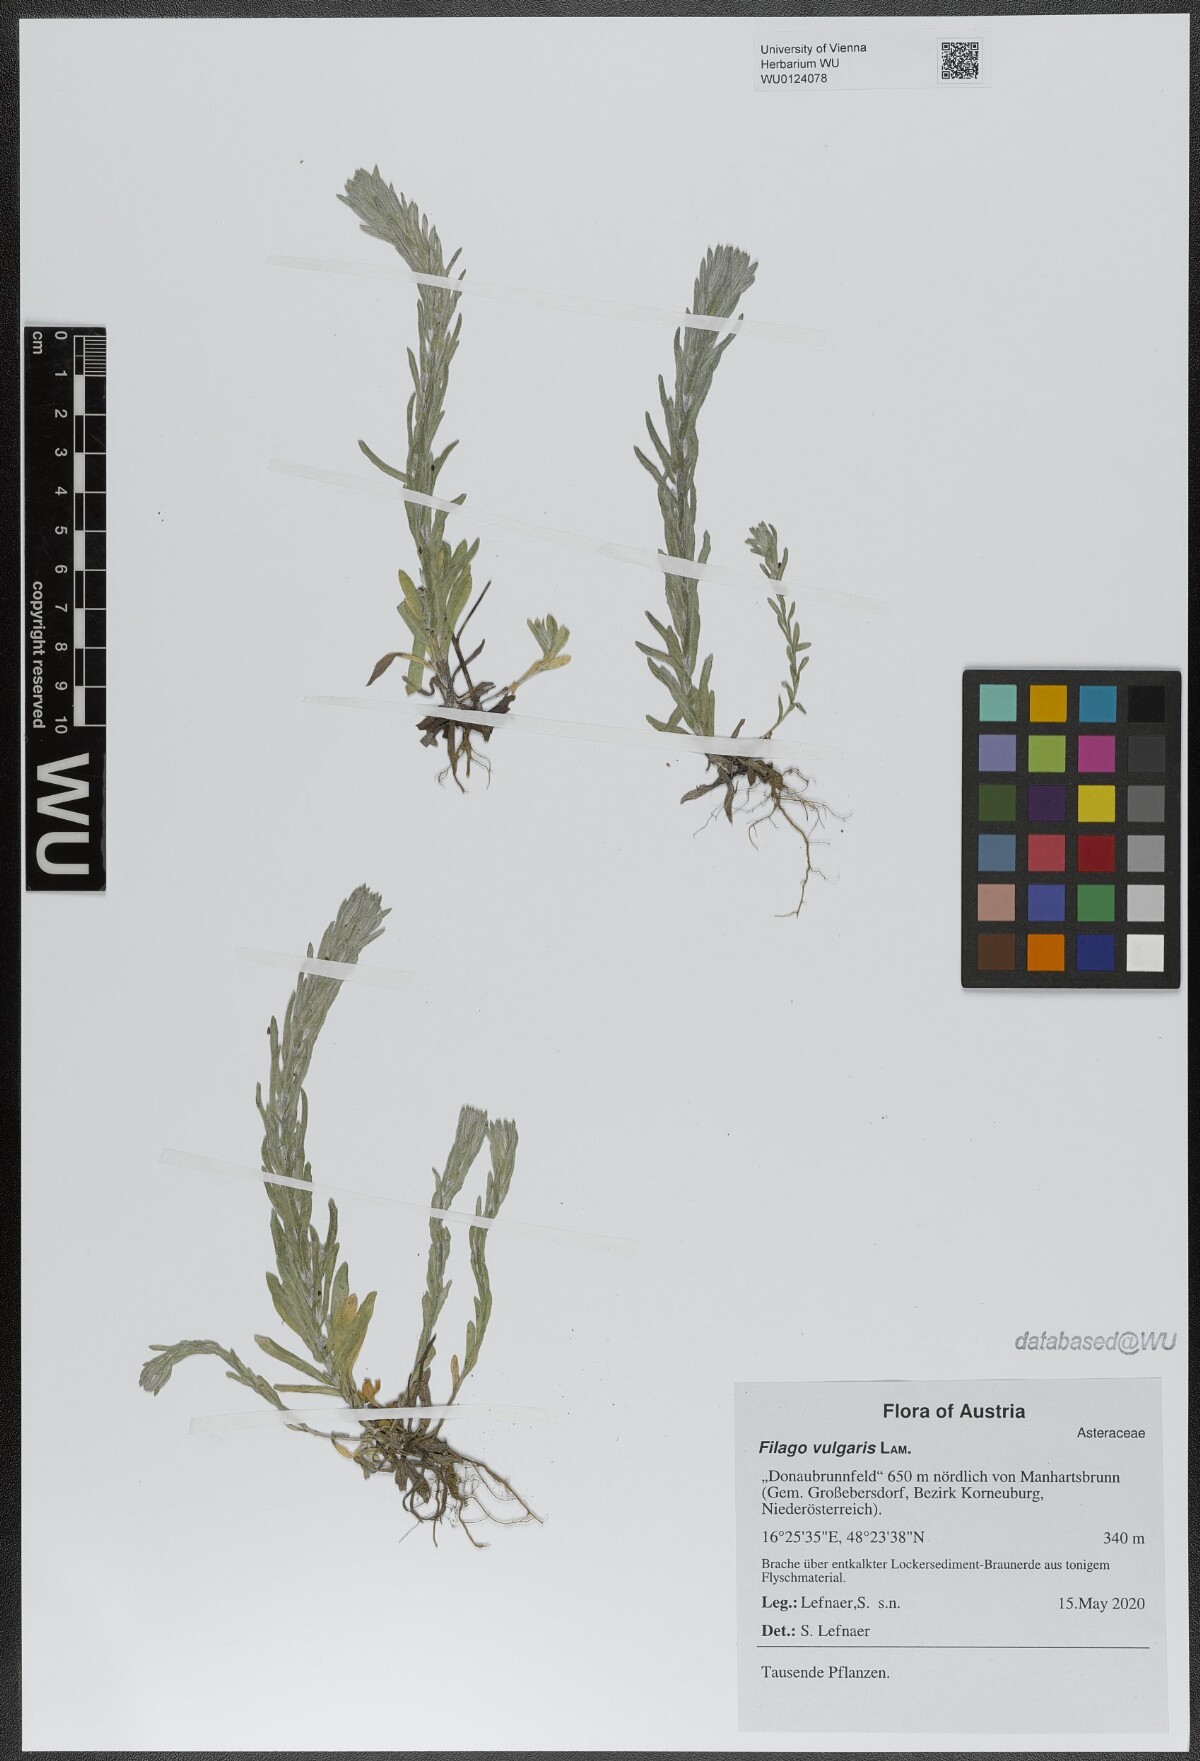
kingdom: Plantae
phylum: Tracheophyta
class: Magnoliopsida
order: Asterales
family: Asteraceae
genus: Filago
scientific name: Filago germanica
